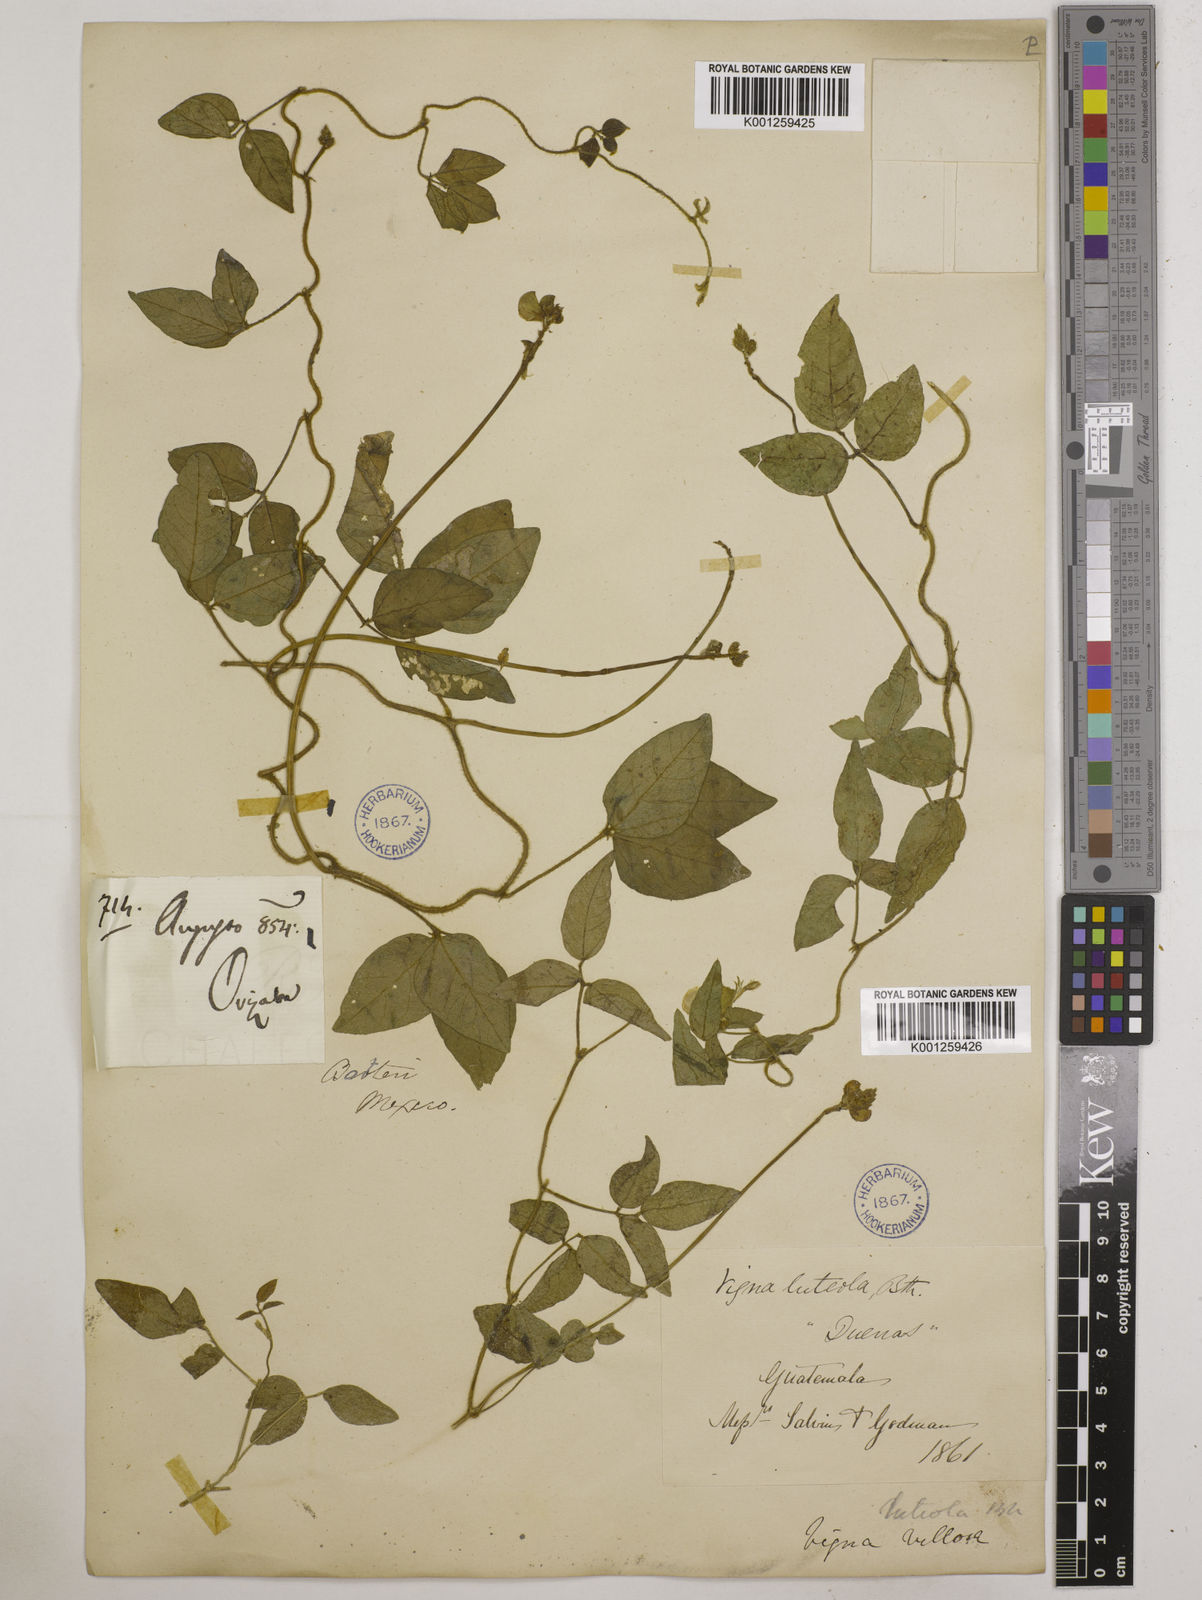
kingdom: Plantae
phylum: Tracheophyta
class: Magnoliopsida
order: Fabales
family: Fabaceae
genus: Vigna
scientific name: Vigna luteola
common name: Hairypod cowpea
